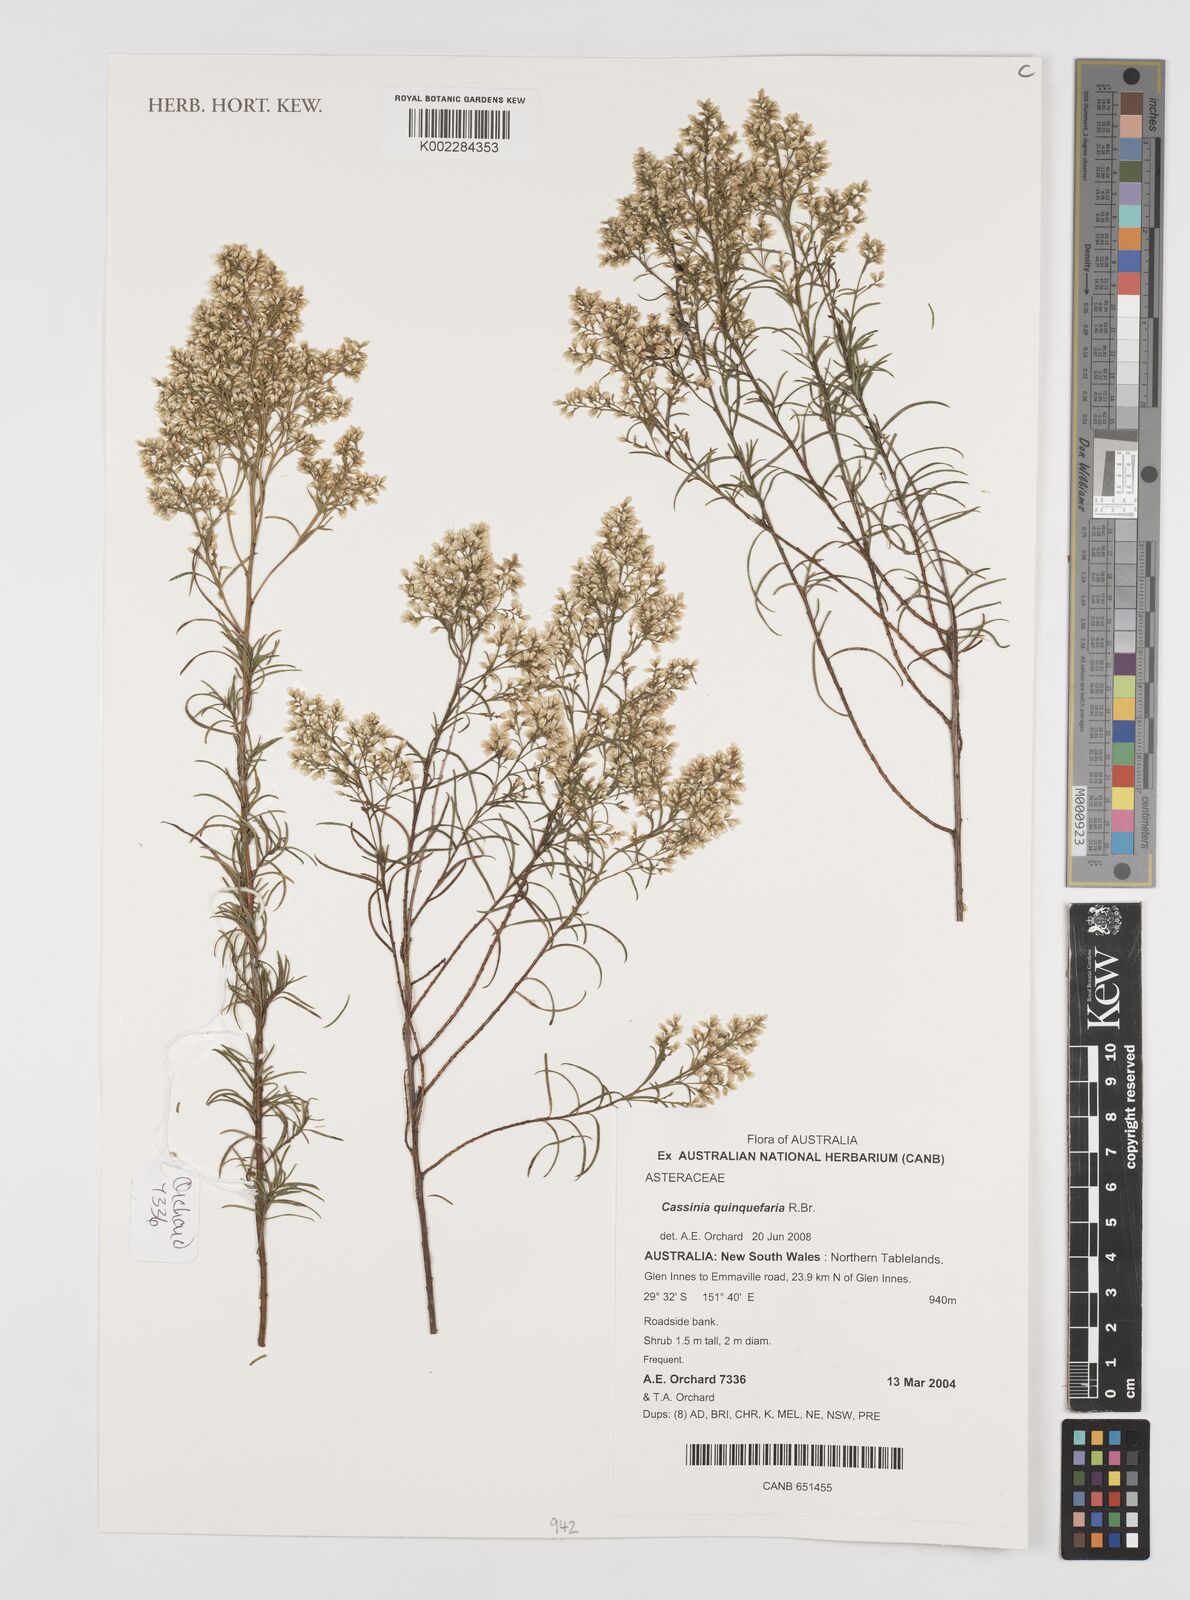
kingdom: Plantae
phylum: Tracheophyta
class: Magnoliopsida
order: Asterales
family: Asteraceae
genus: Cassinia
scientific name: Cassinia quinquefaria
